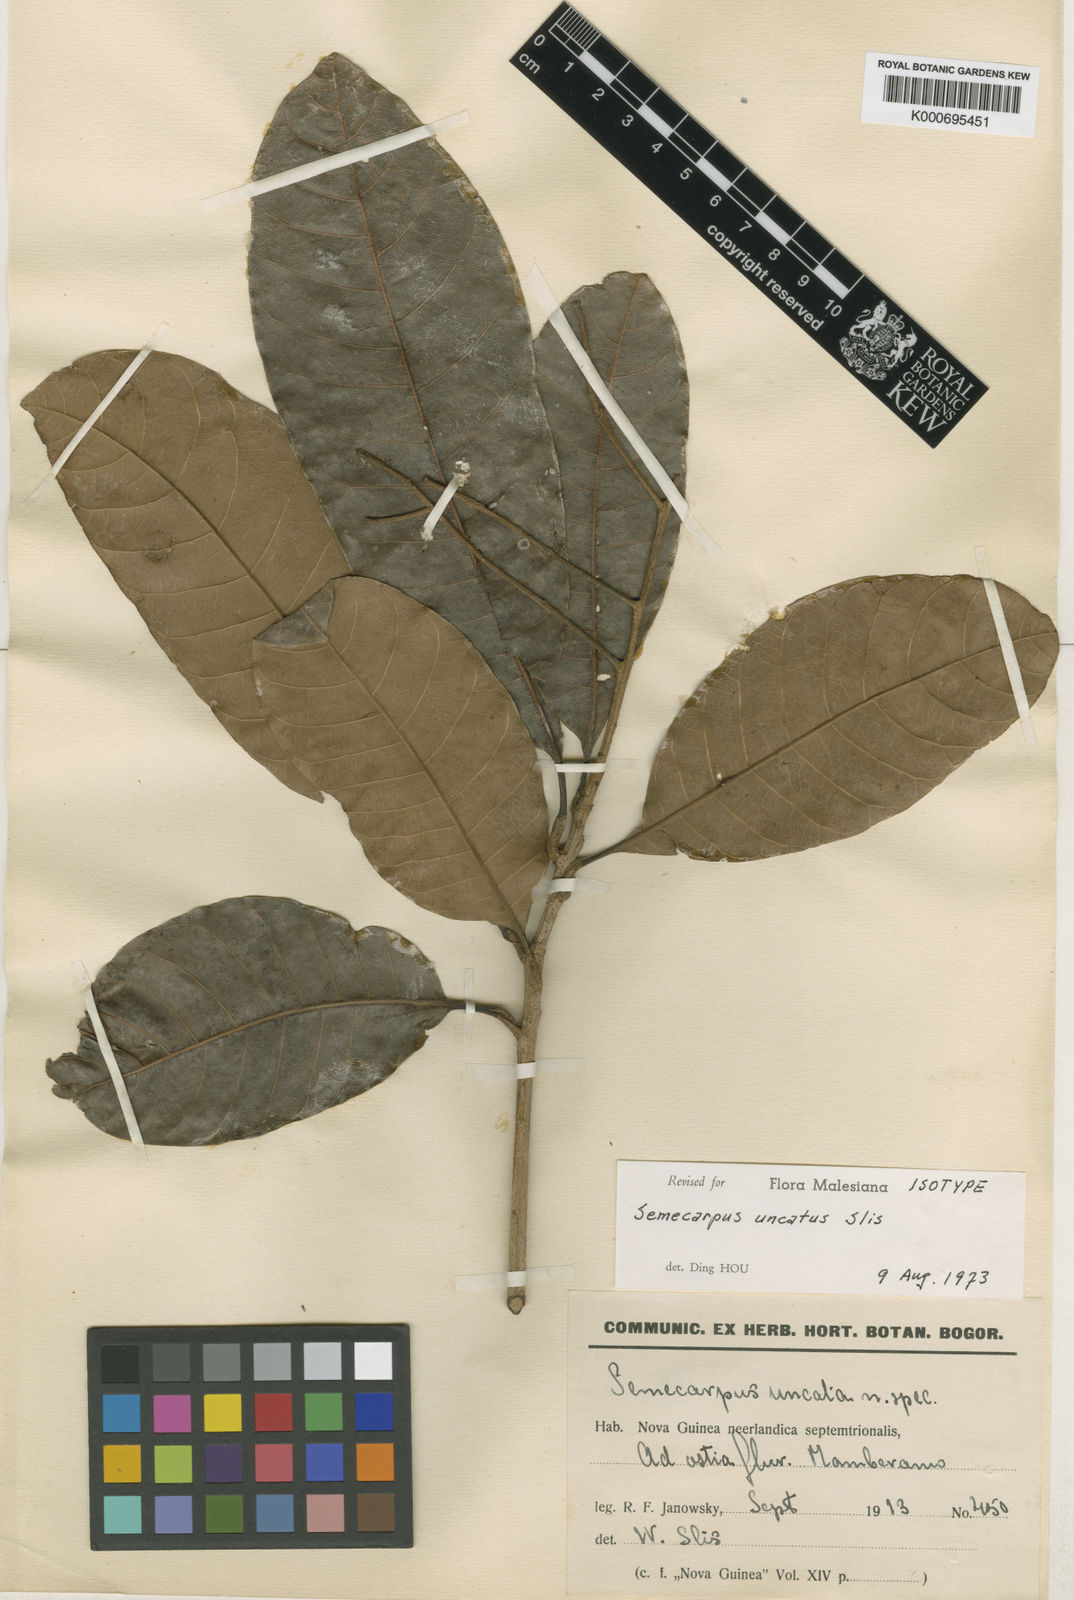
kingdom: Plantae
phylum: Tracheophyta
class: Magnoliopsida
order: Sapindales
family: Anacardiaceae
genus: Semecarpus
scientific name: Semecarpus forstenii
